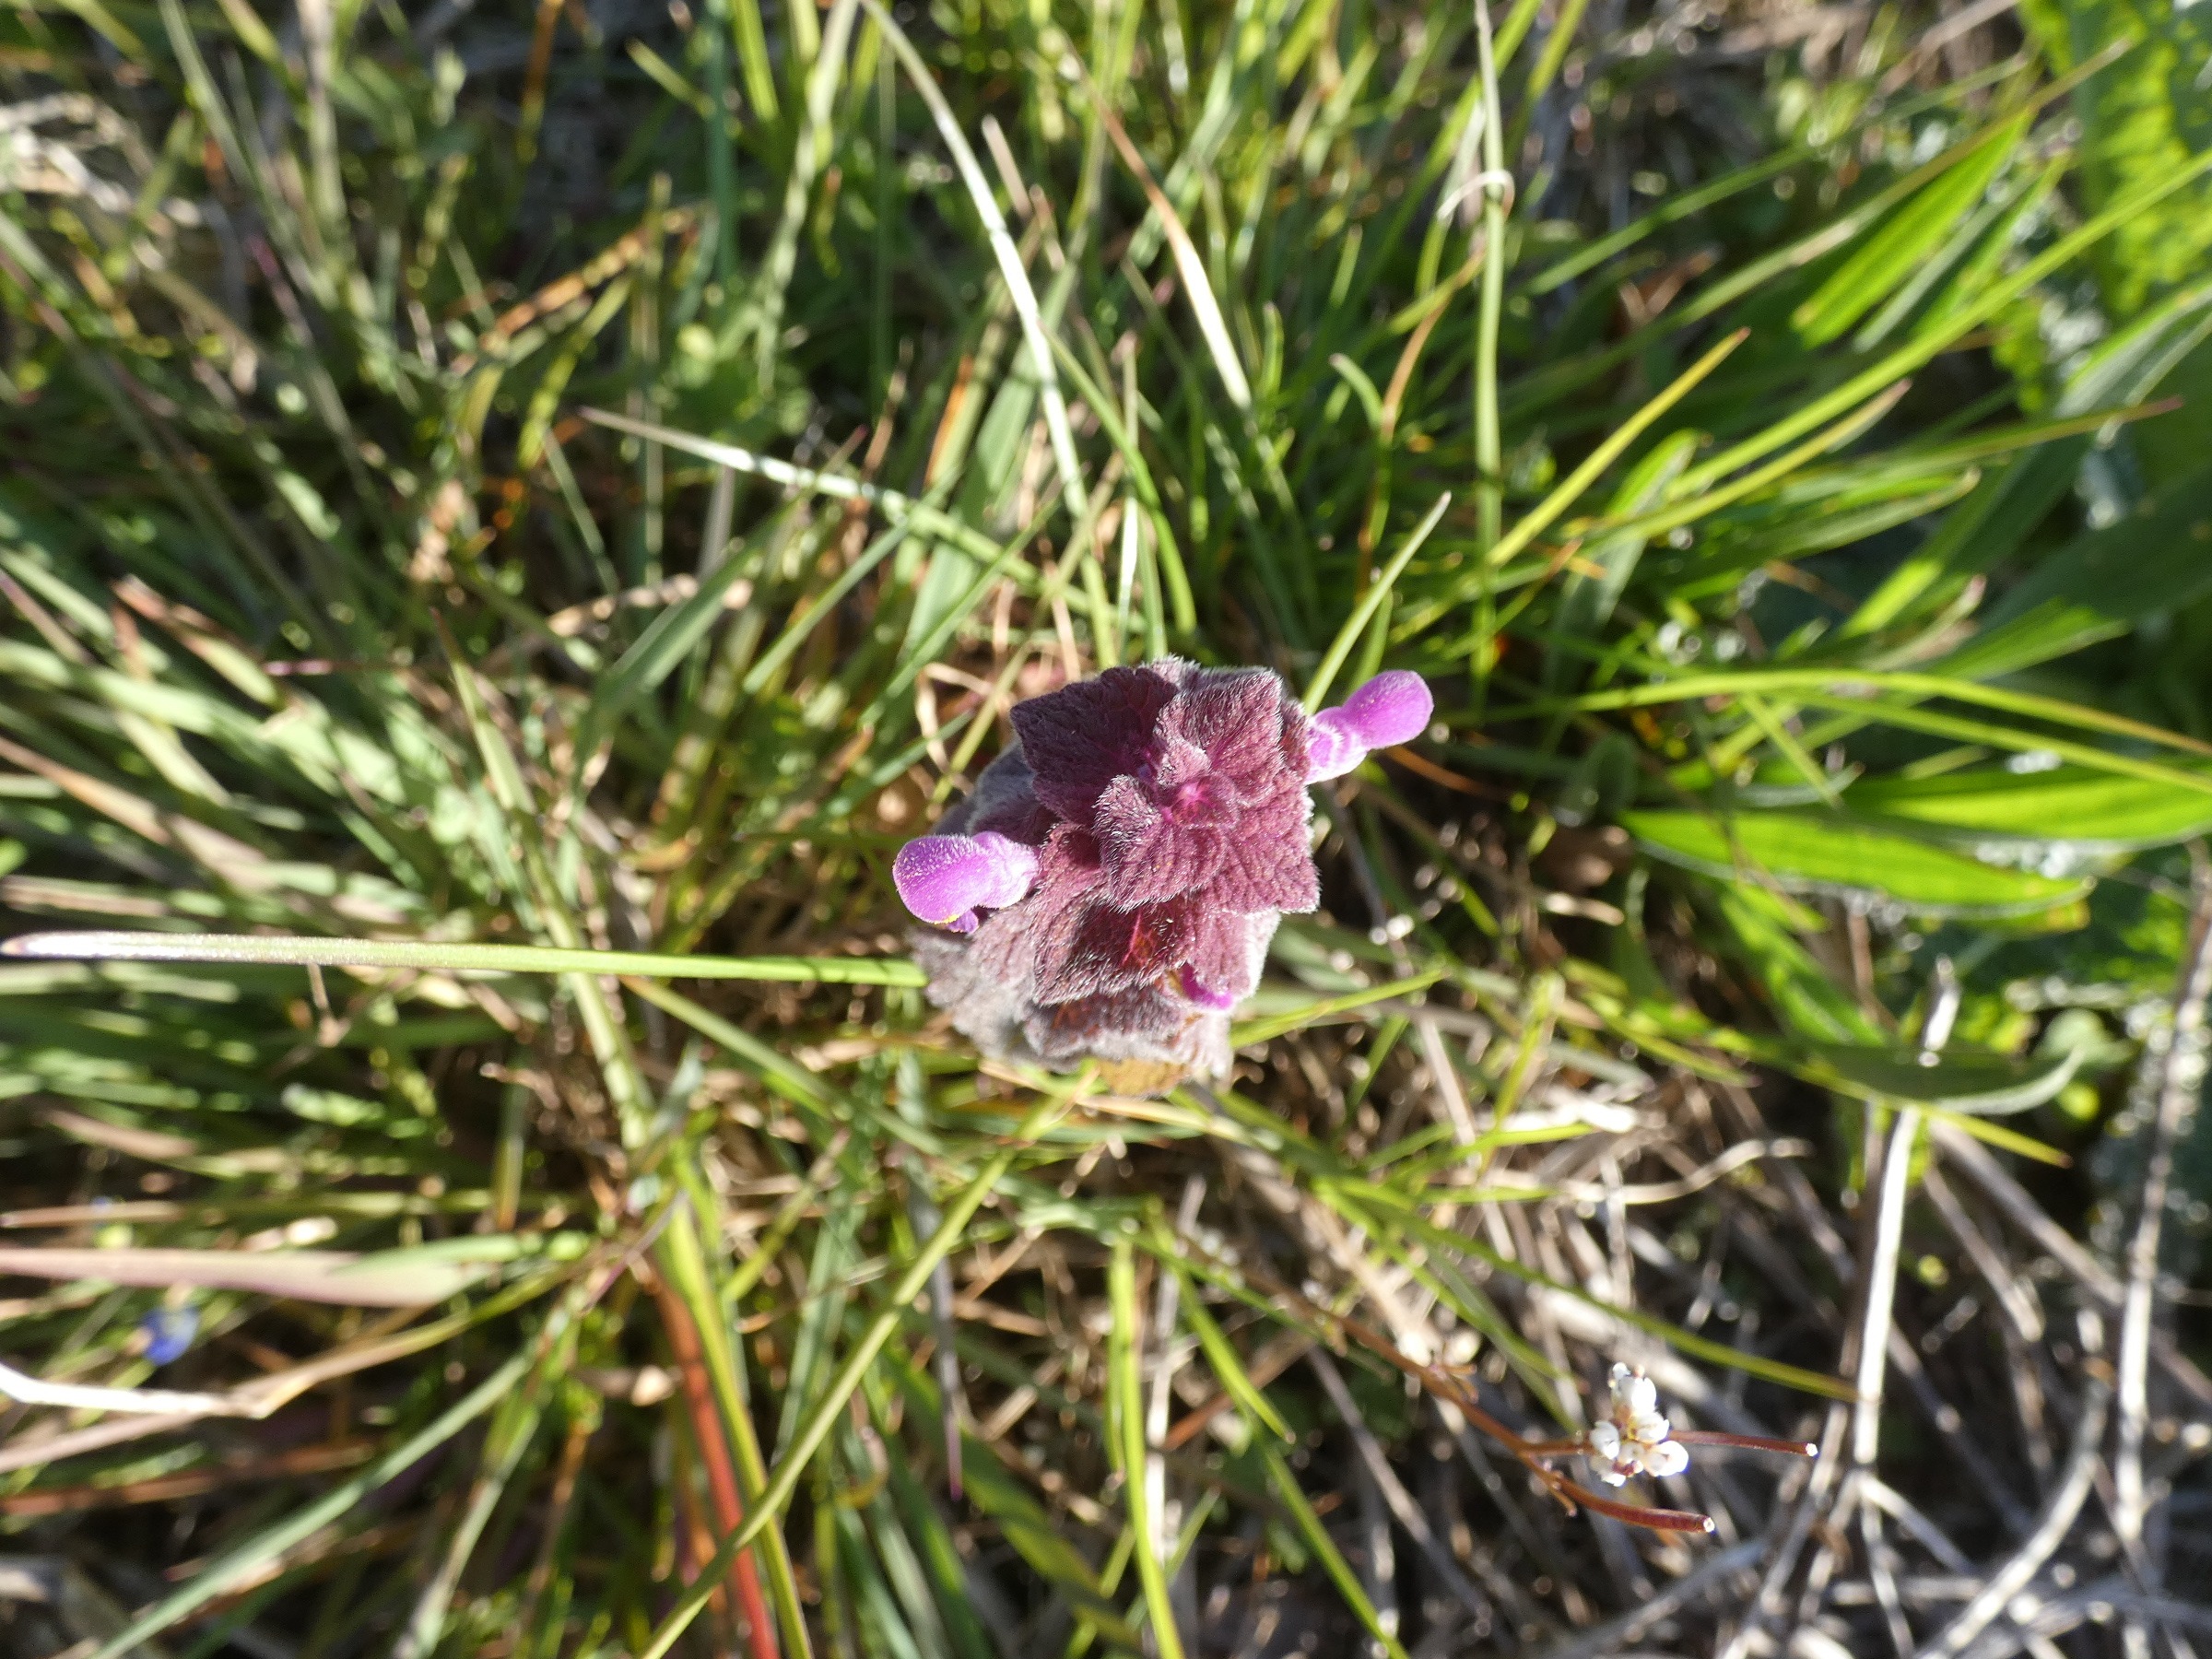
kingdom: Plantae
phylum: Tracheophyta
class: Magnoliopsida
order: Lamiales
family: Lamiaceae
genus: Lamium
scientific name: Lamium purpureum
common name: Rød tvetand
